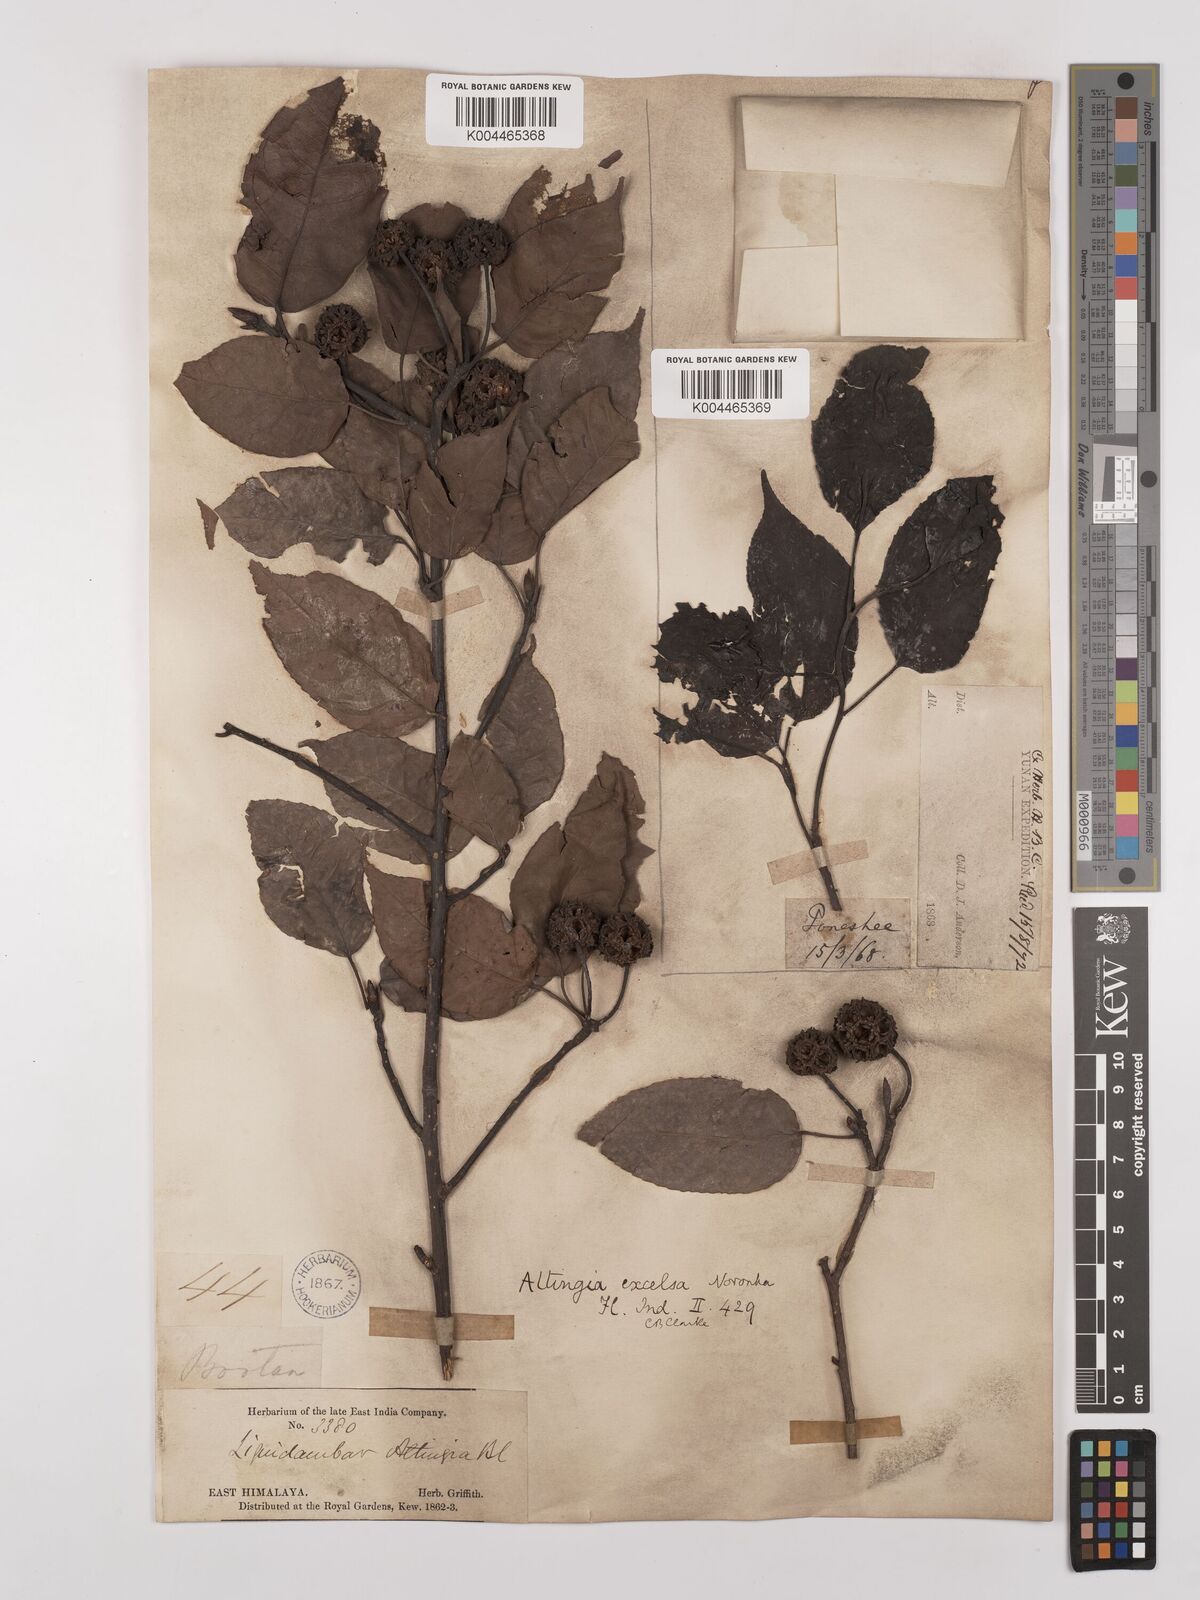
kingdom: Plantae
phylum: Tracheophyta
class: Magnoliopsida
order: Saxifragales
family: Altingiaceae
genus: Liquidambar
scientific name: Liquidambar excelsa
